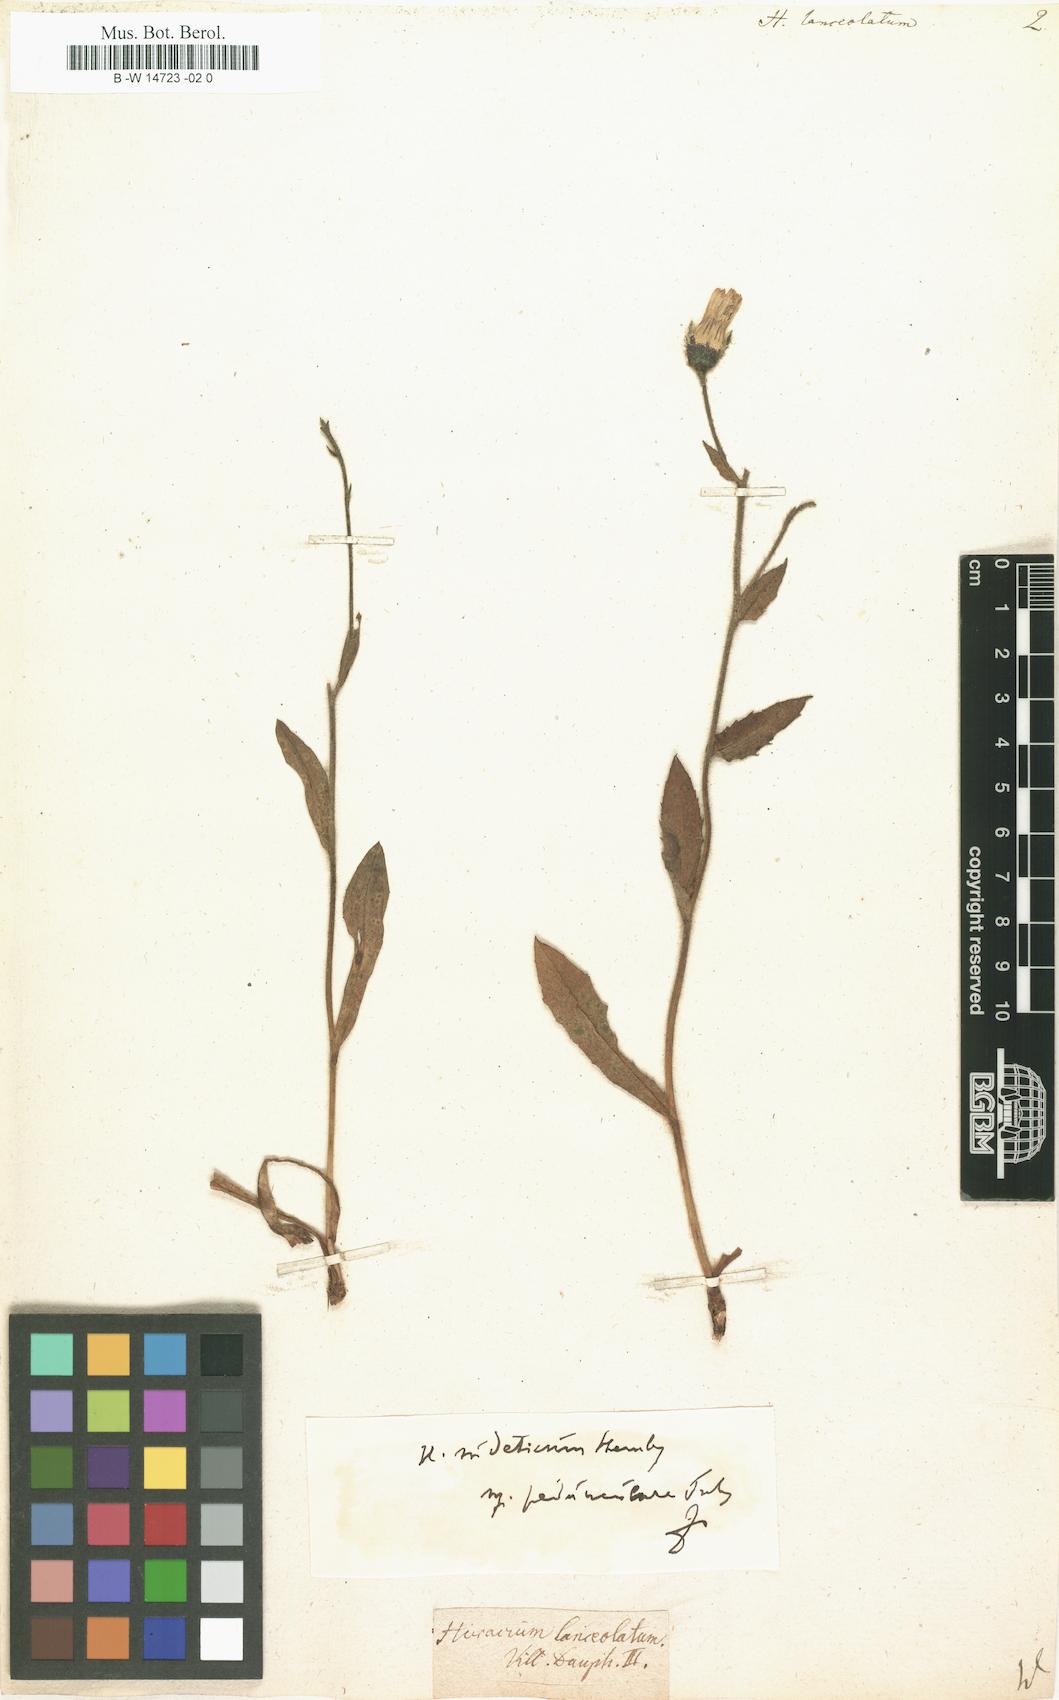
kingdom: Plantae
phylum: Tracheophyta
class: Magnoliopsida
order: Asterales
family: Asteraceae
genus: Hieracium
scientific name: Hieracium lanceolatum
